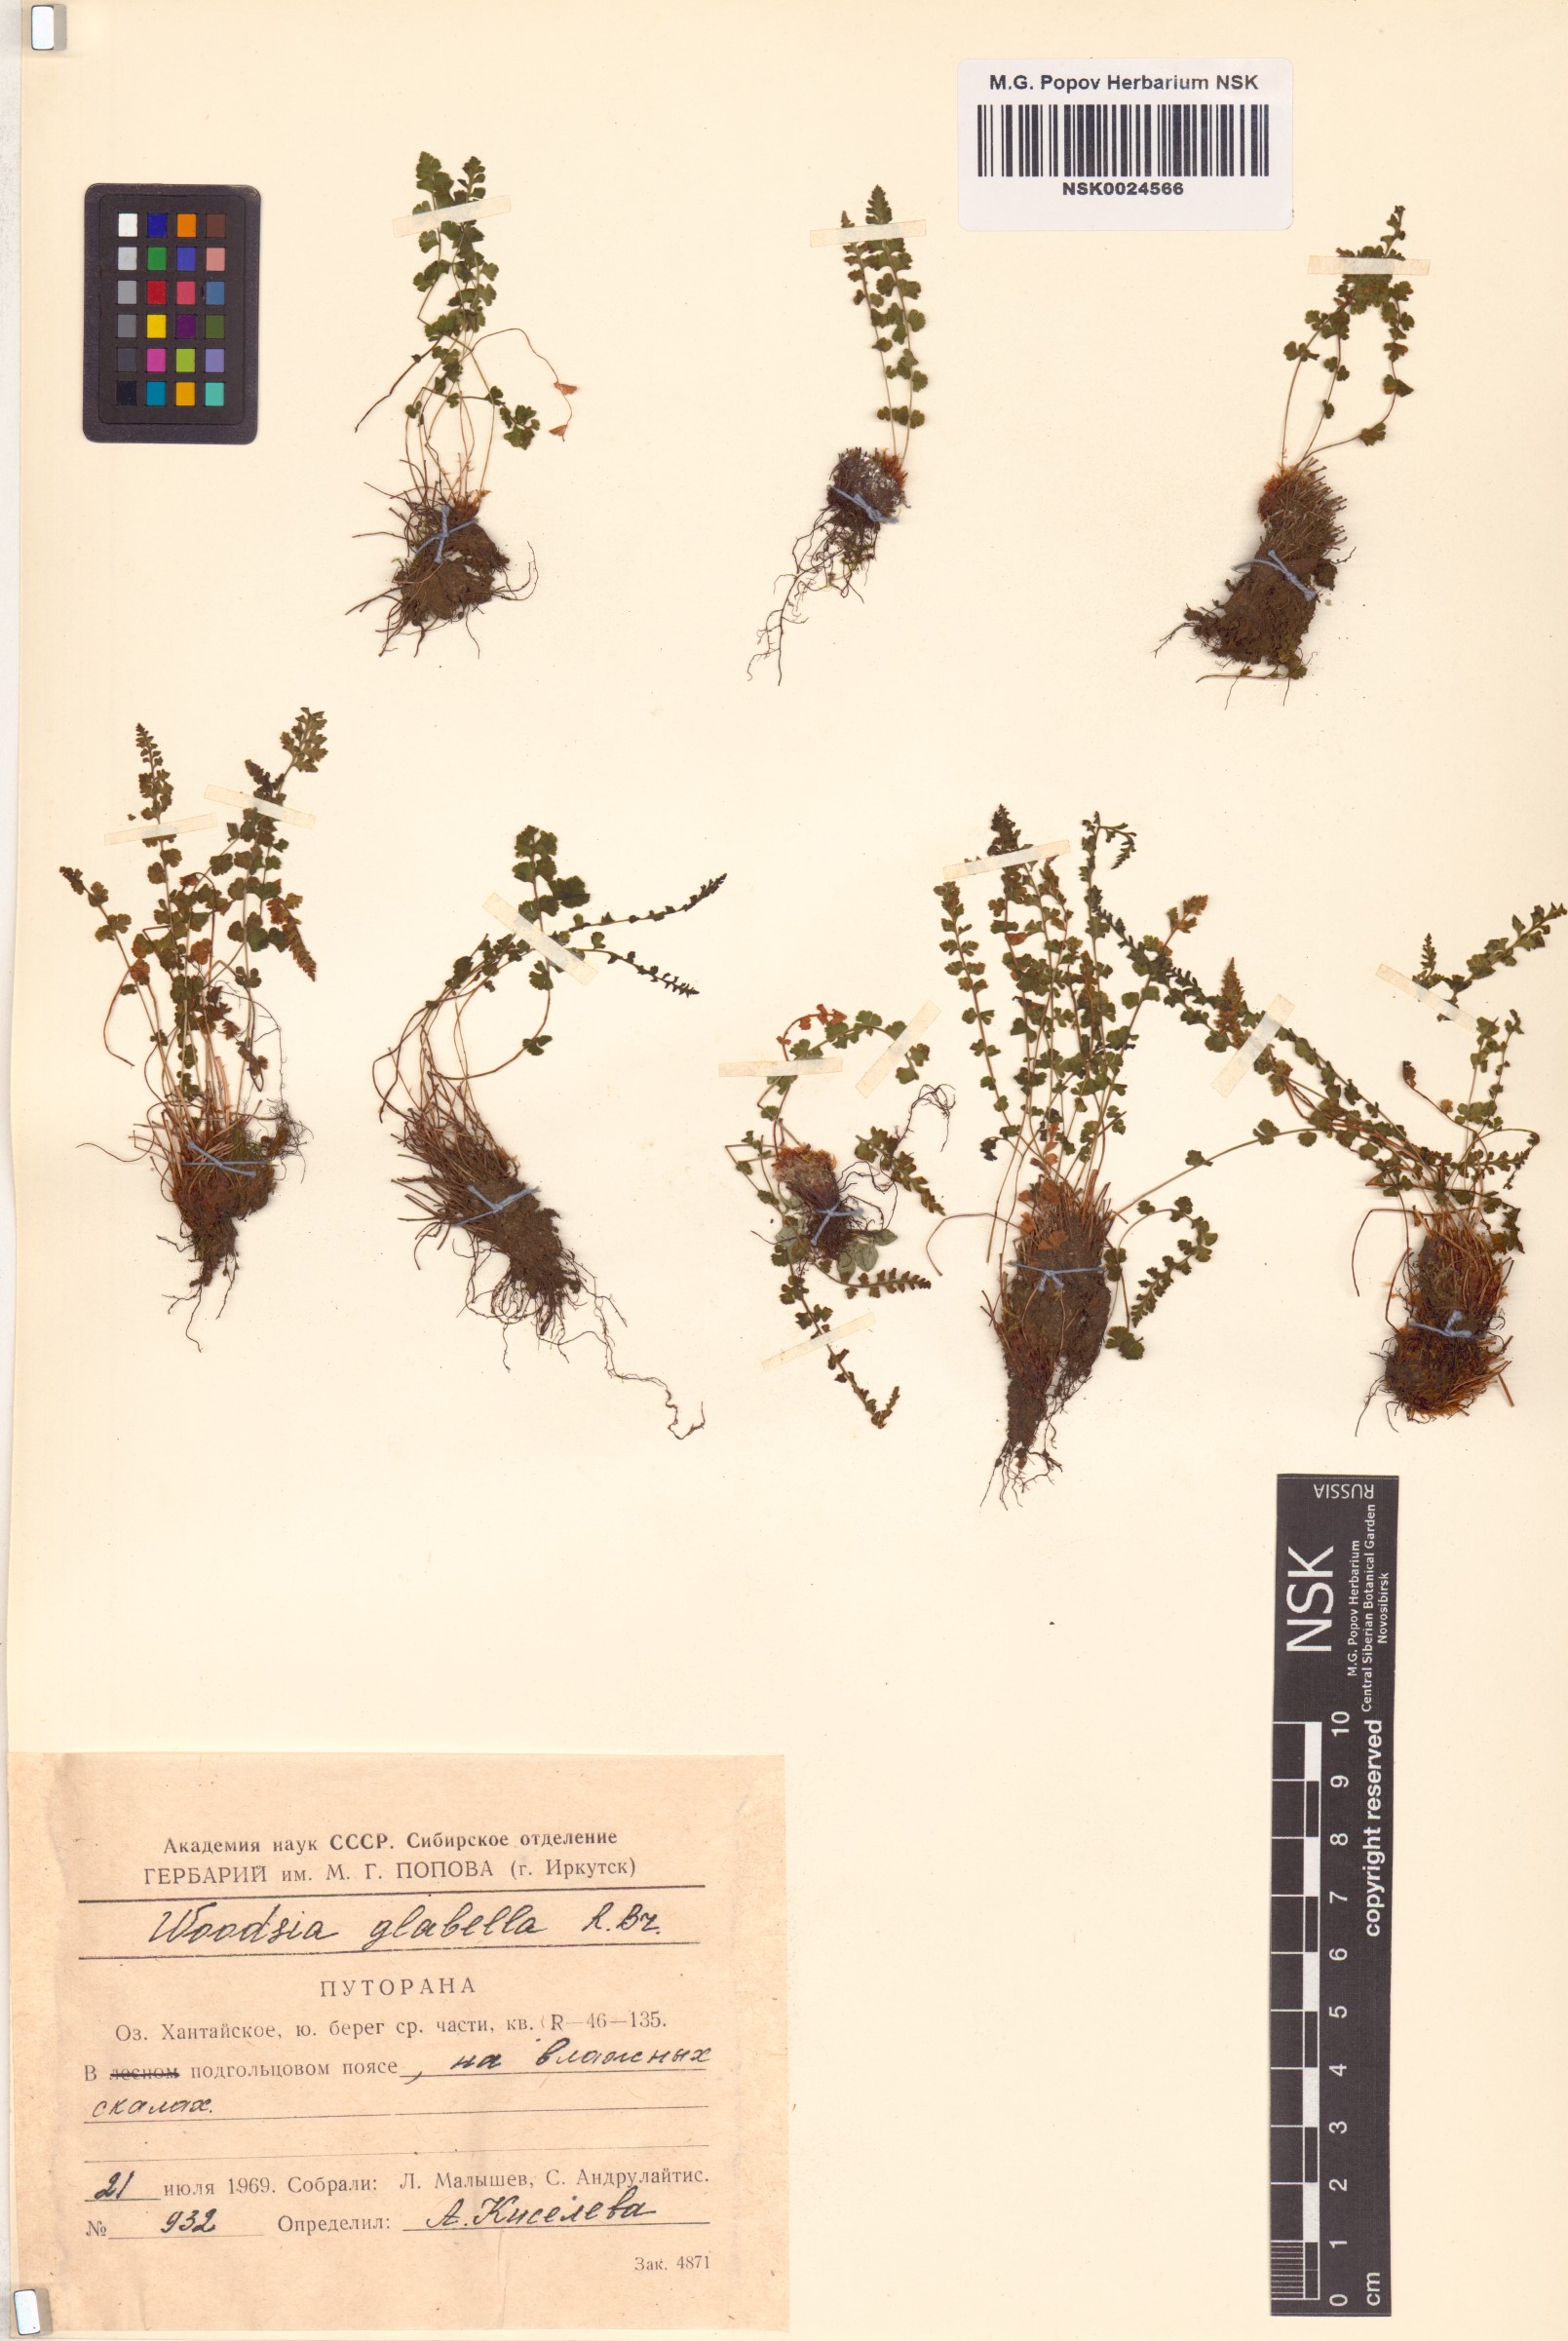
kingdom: Plantae
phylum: Tracheophyta
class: Polypodiopsida
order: Polypodiales
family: Woodsiaceae
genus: Woodsia
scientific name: Woodsia glabella
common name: Smooth woodsia
